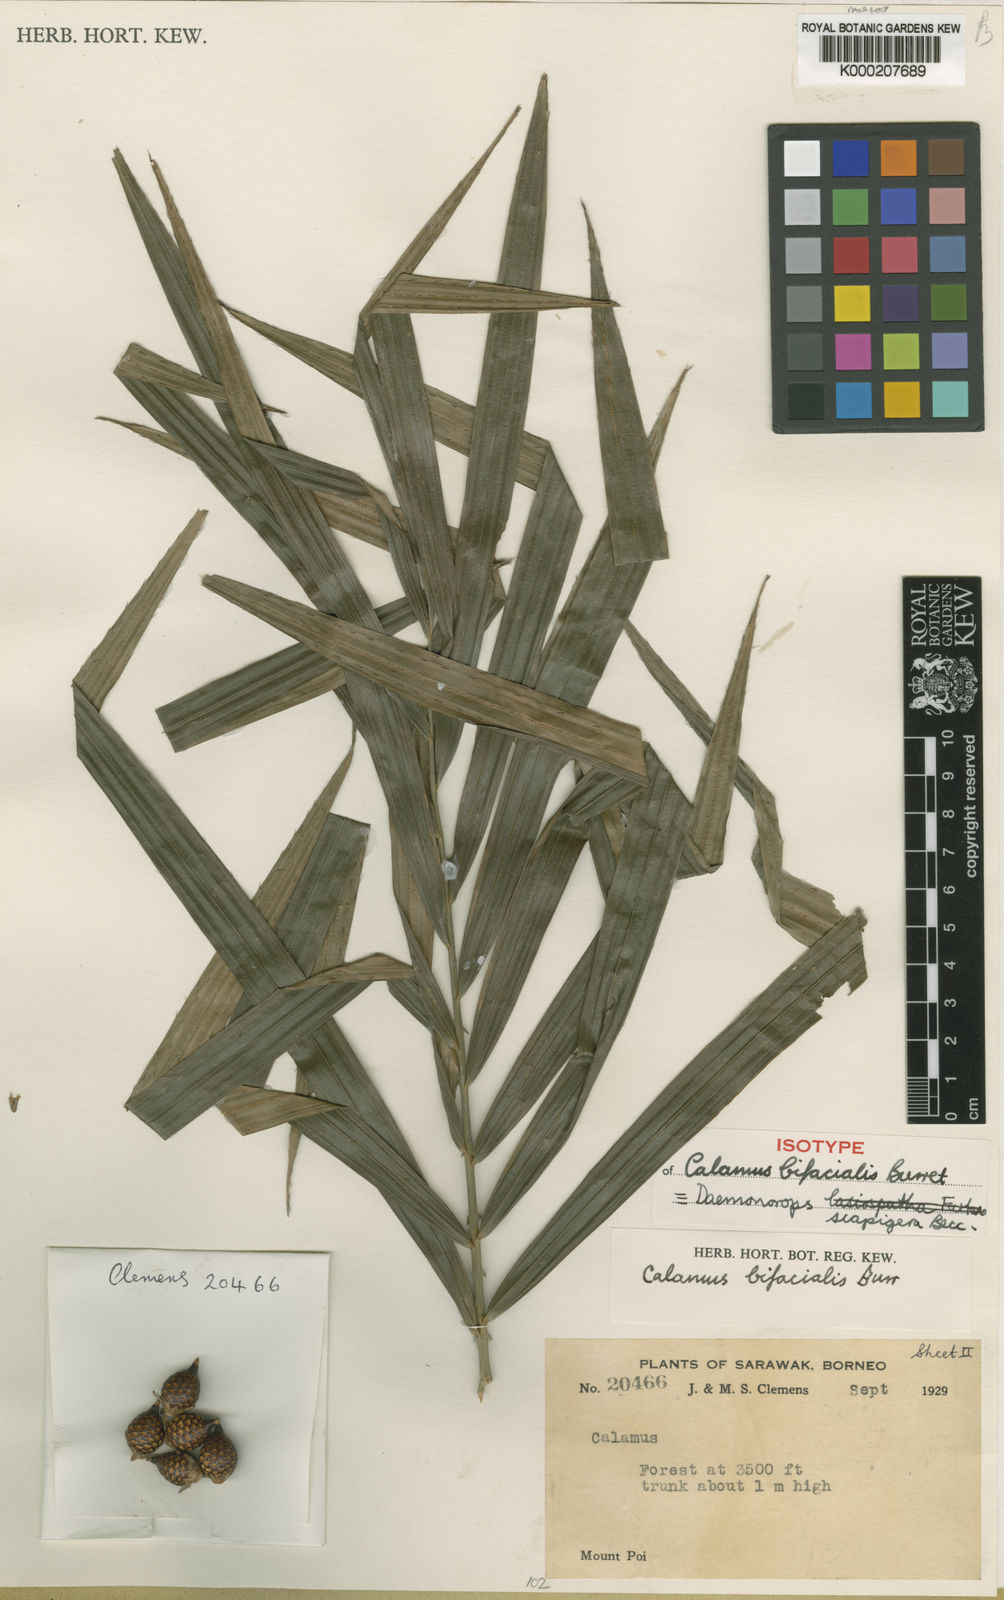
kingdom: Plantae
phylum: Tracheophyta
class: Liliopsida
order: Arecales
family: Arecaceae
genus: Calamus
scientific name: Calamus scapigerus
